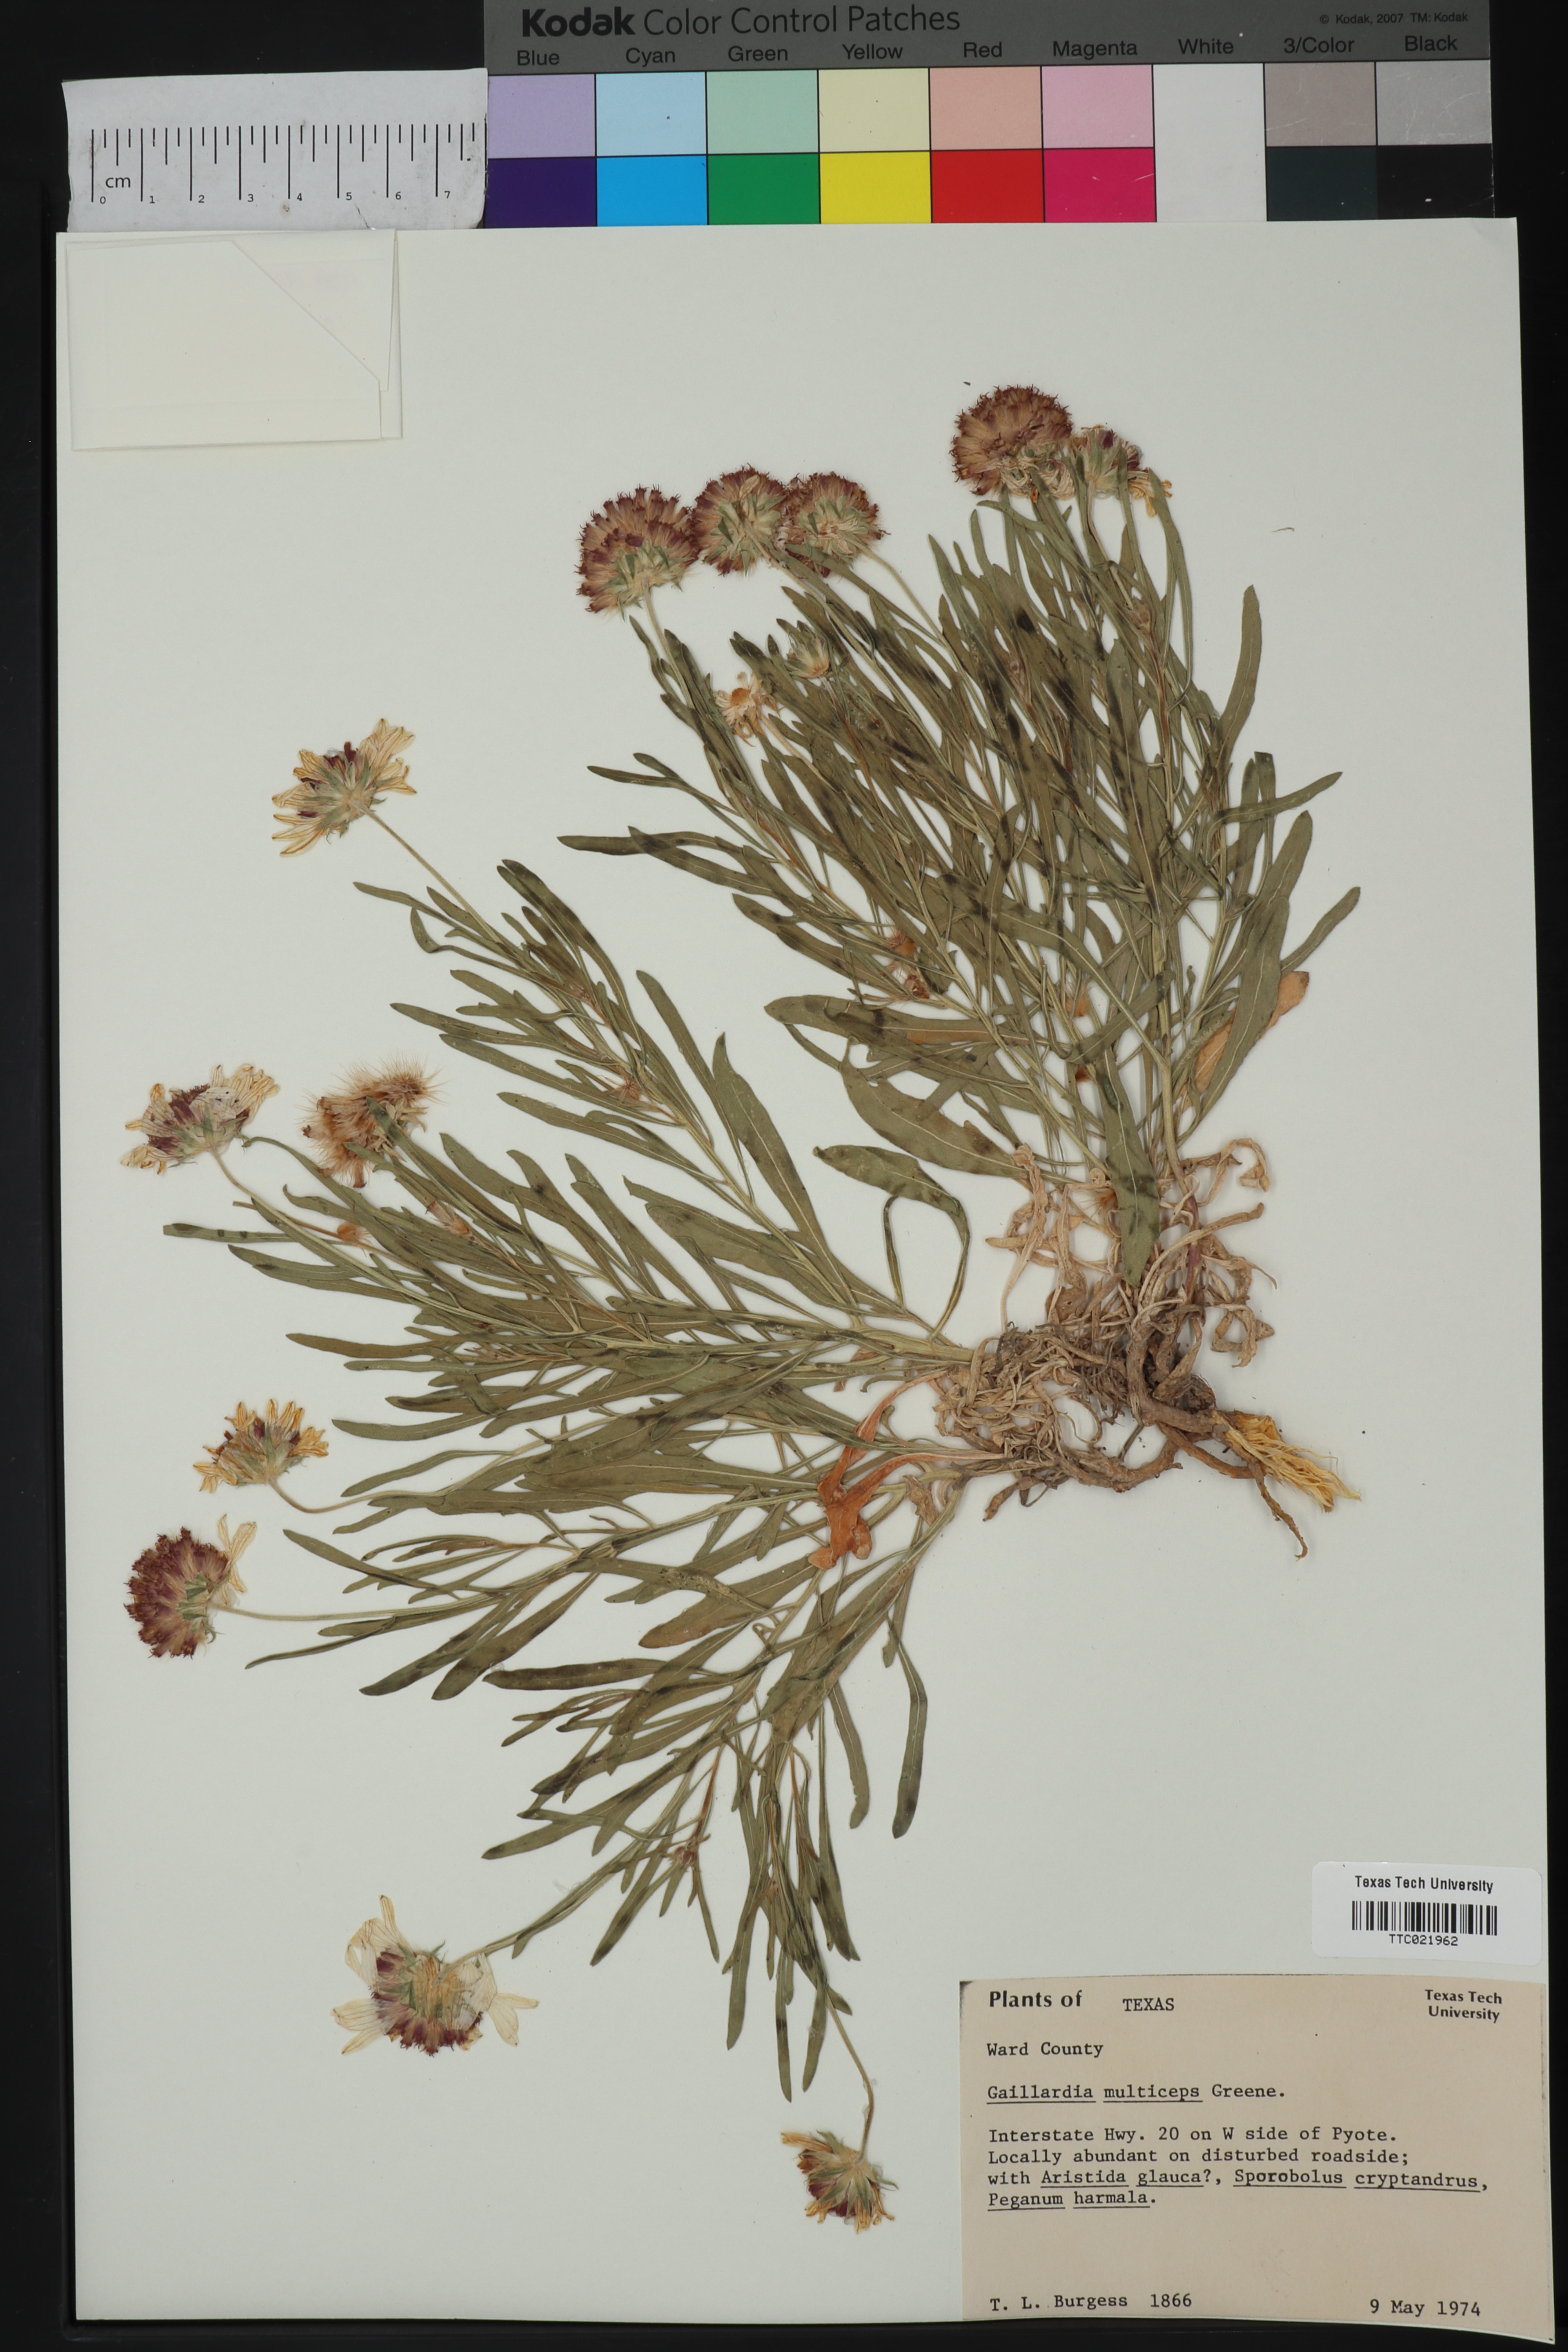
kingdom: Plantae
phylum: Tracheophyta
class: Magnoliopsida
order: Asterales
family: Asteraceae
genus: Gaillardia
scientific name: Gaillardia multiceps
